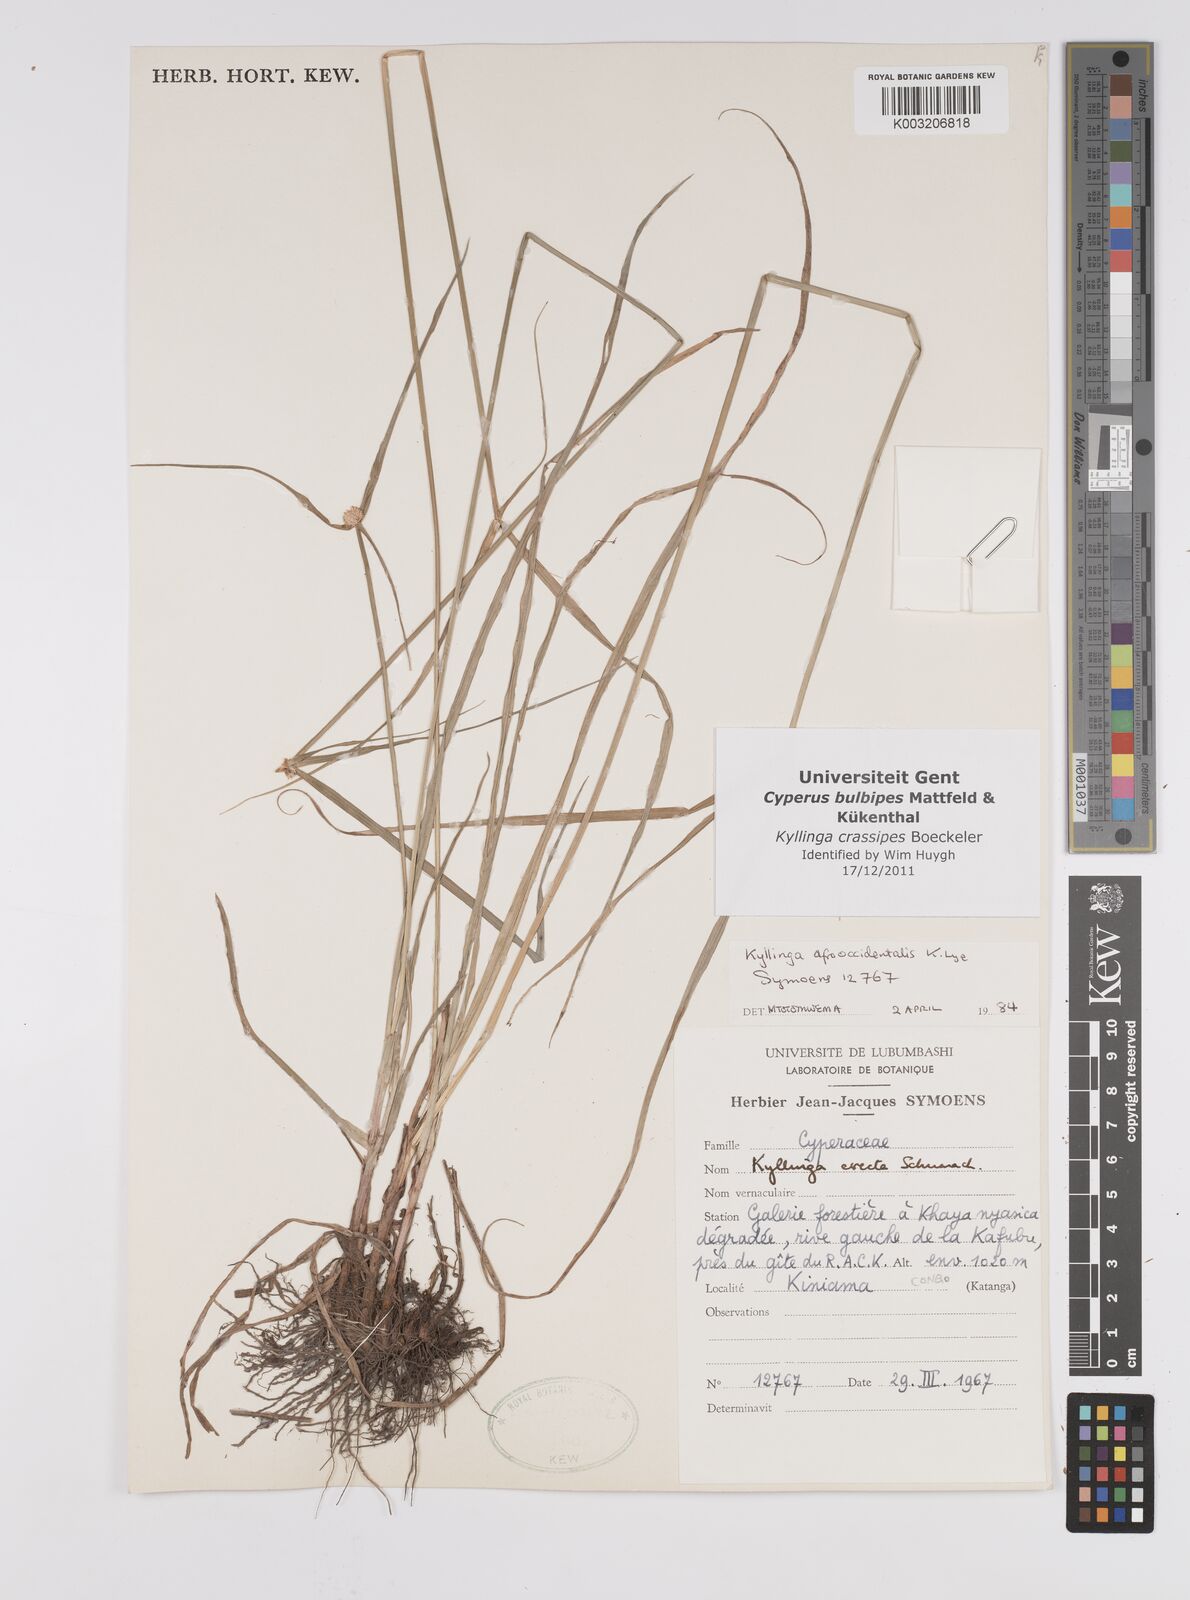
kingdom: Plantae
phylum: Tracheophyta
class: Liliopsida
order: Poales
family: Cyperaceae
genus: Cyperus
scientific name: Cyperus
